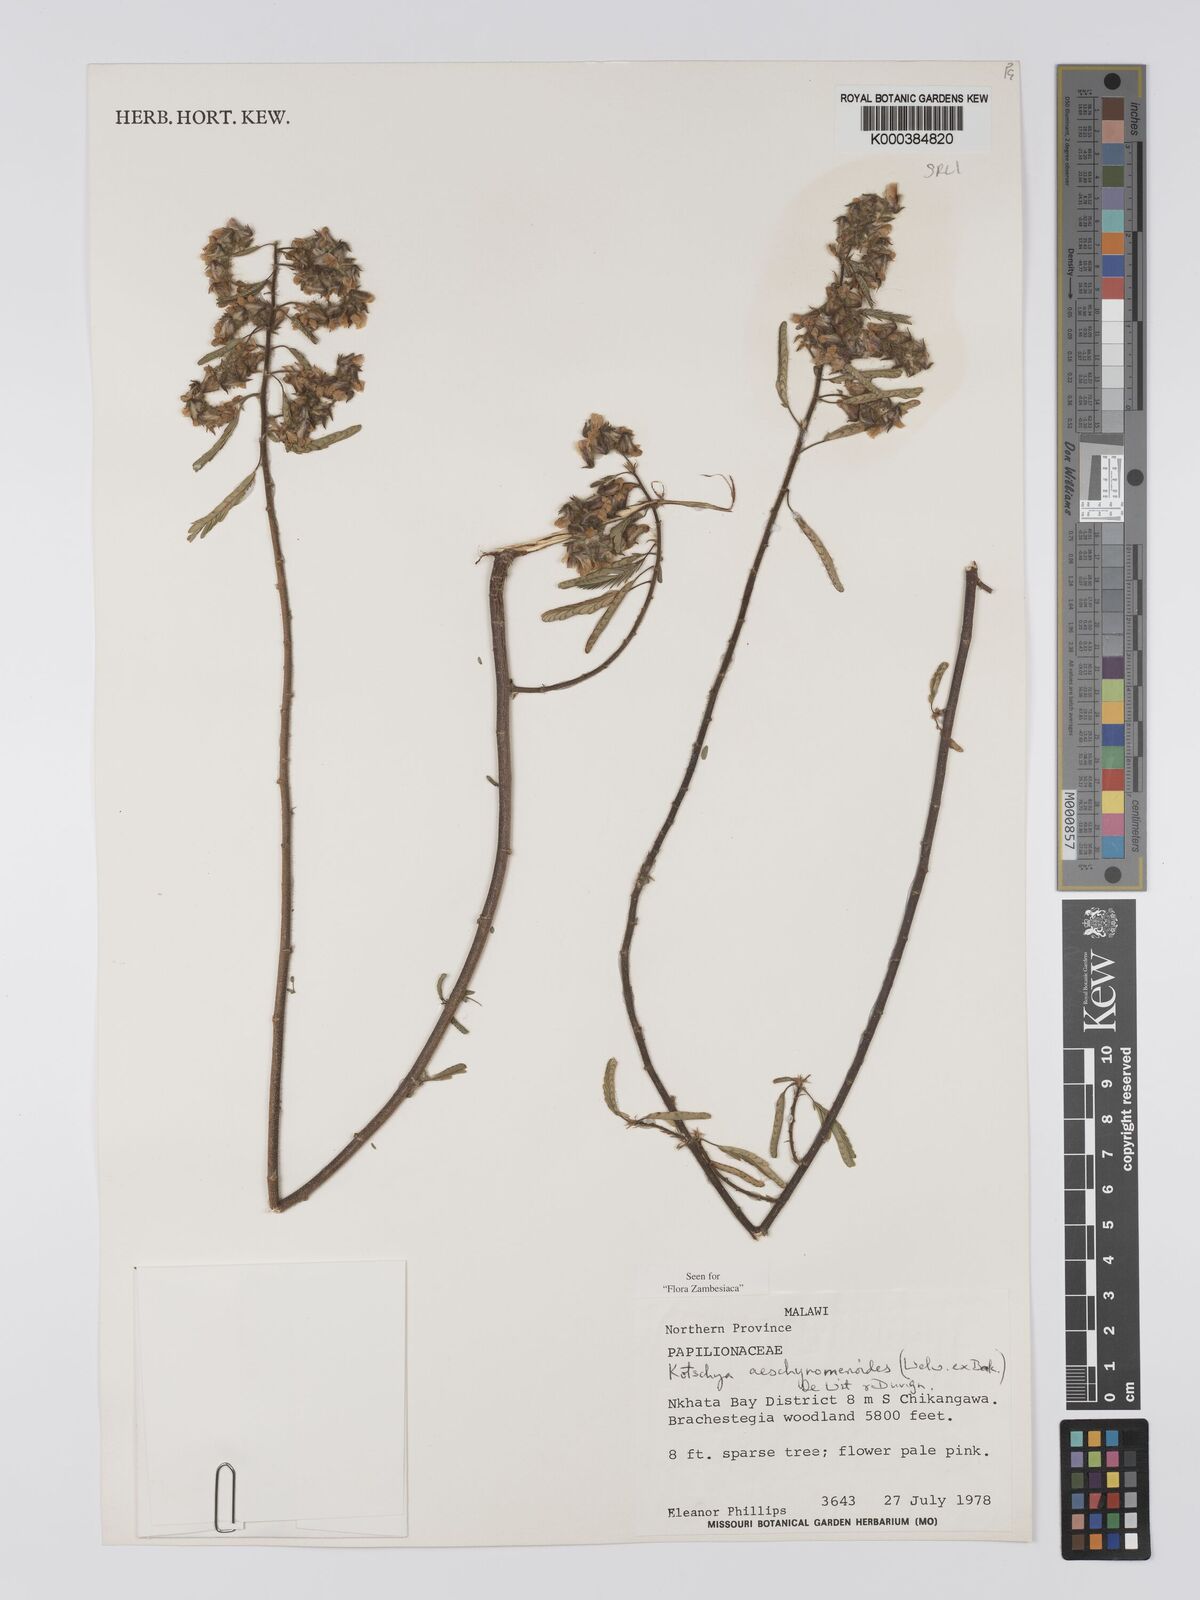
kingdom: Plantae
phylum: Tracheophyta
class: Magnoliopsida
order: Fabales
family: Fabaceae
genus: Kotschya
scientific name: Kotschya aeschynomenoides
